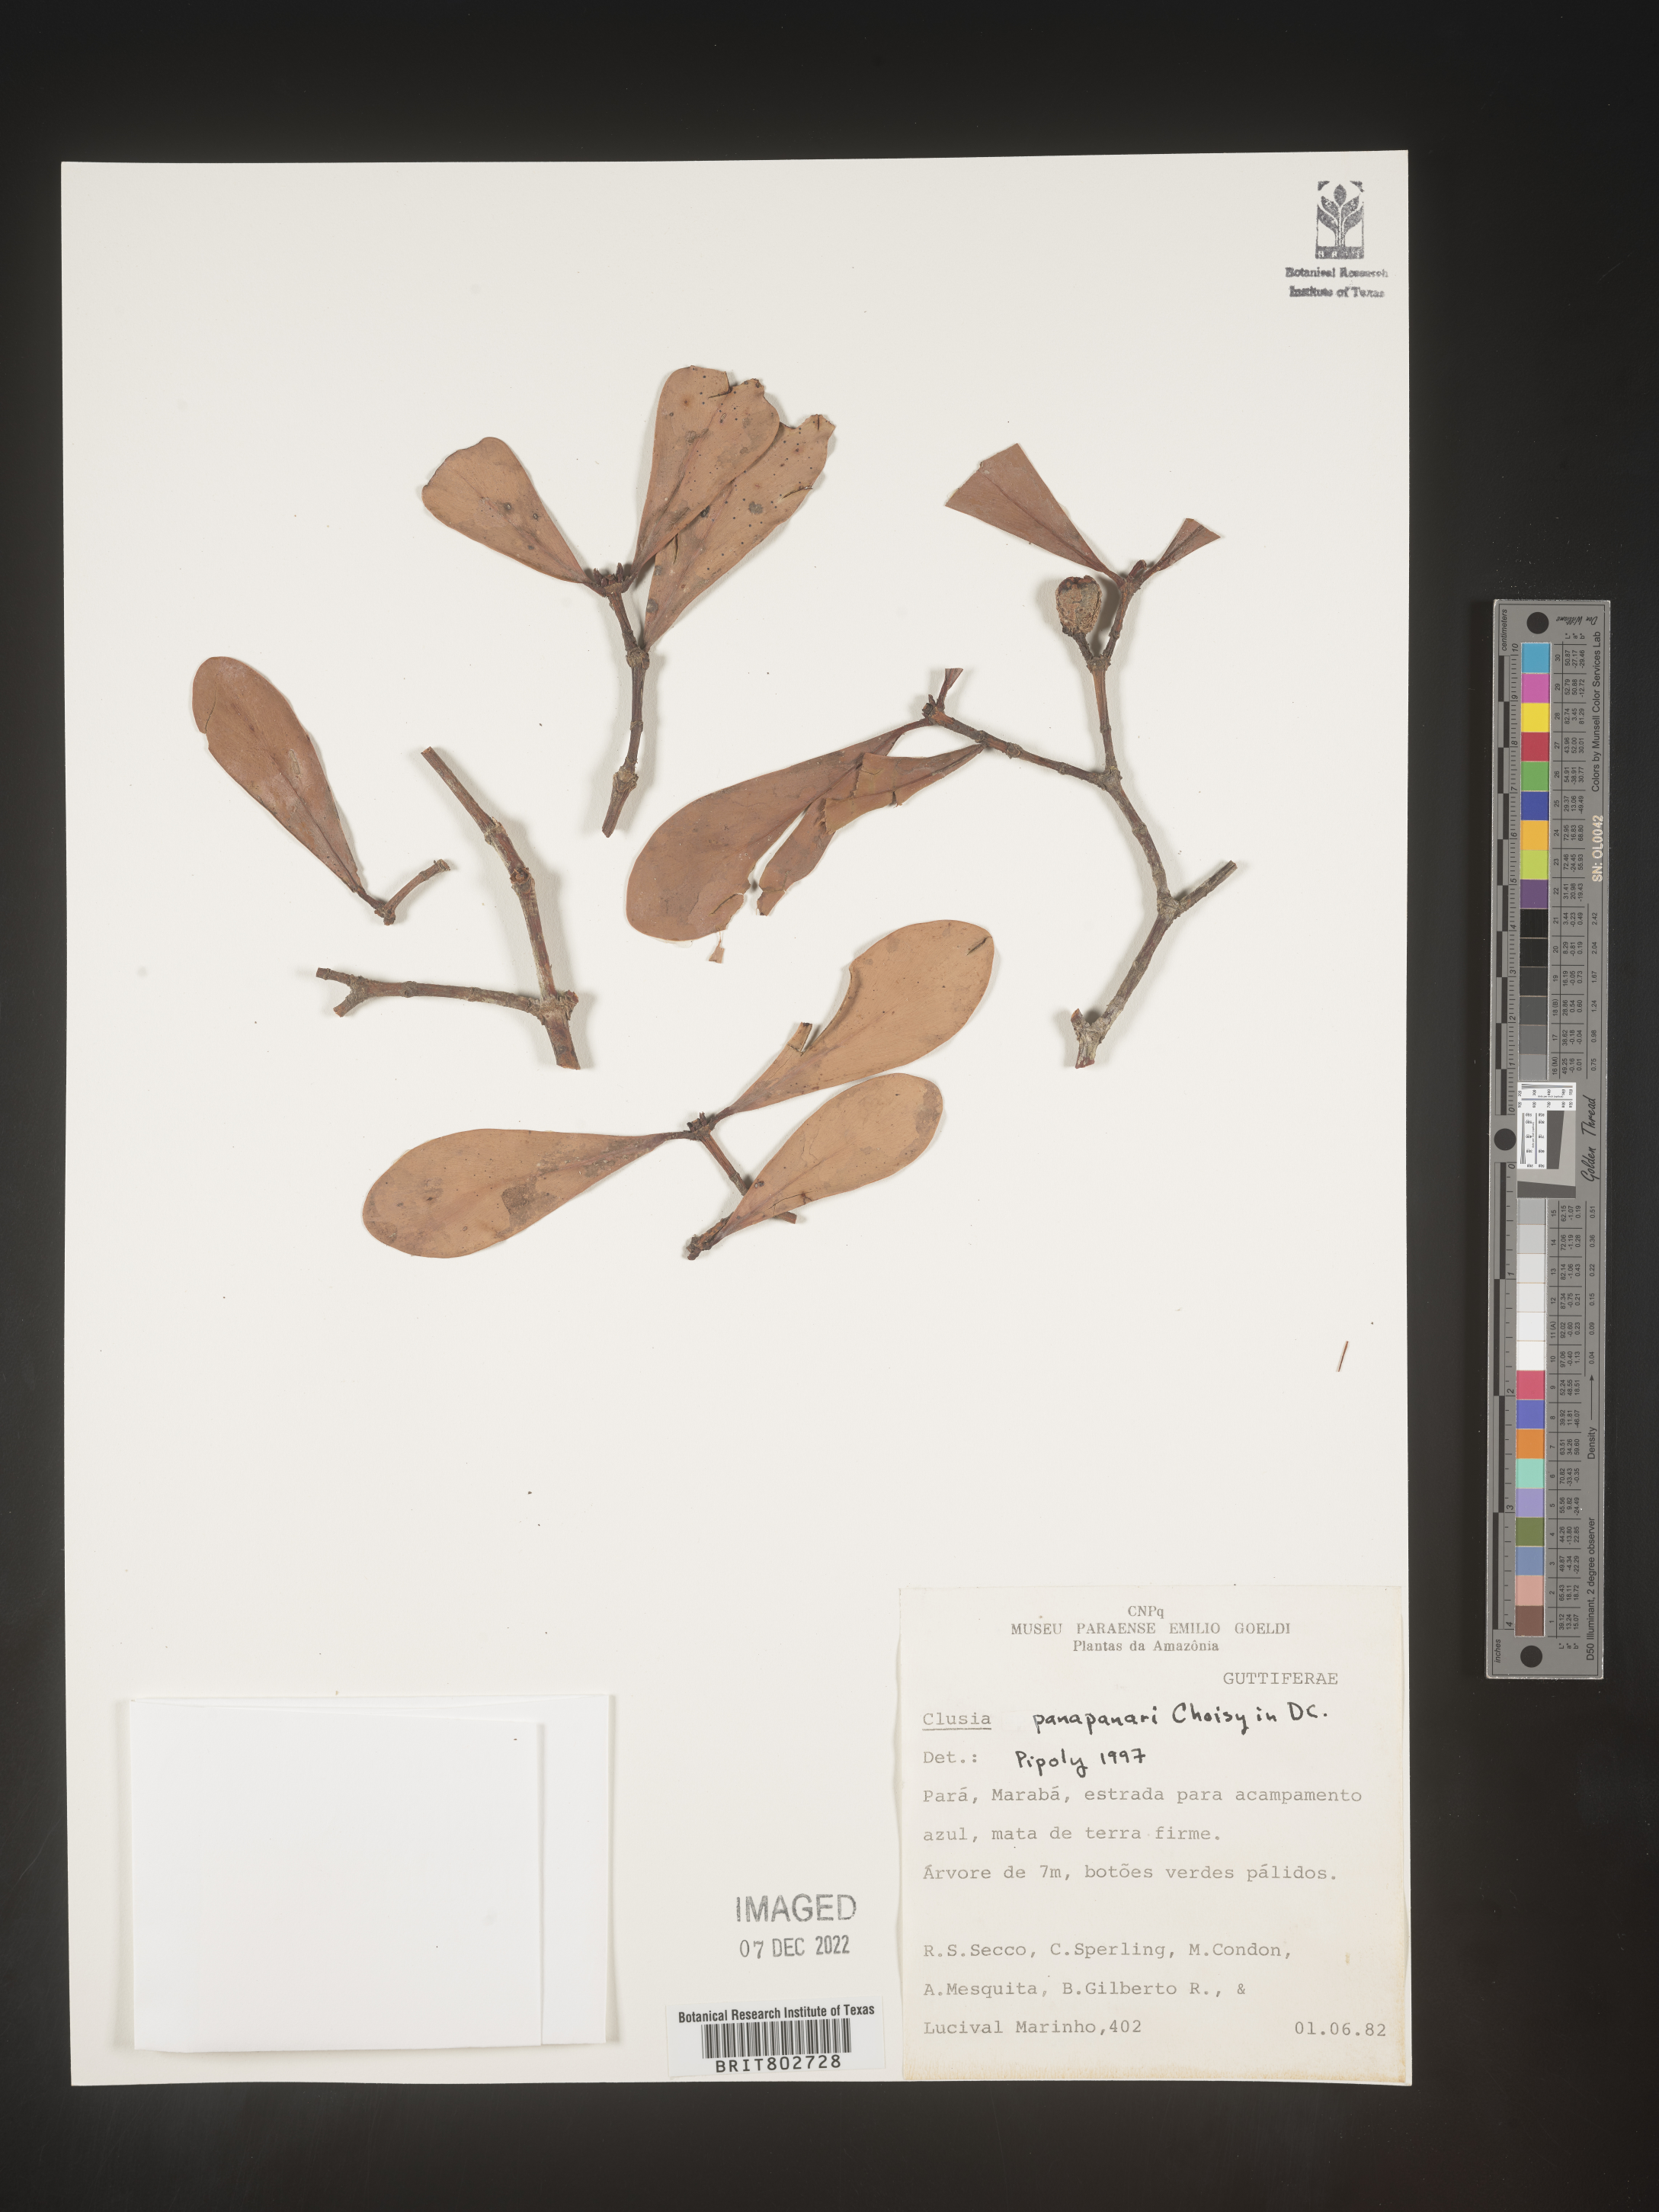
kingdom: Plantae
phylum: Tracheophyta
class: Magnoliopsida
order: Malpighiales
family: Clusiaceae
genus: Clusia
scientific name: Clusia panapanari
